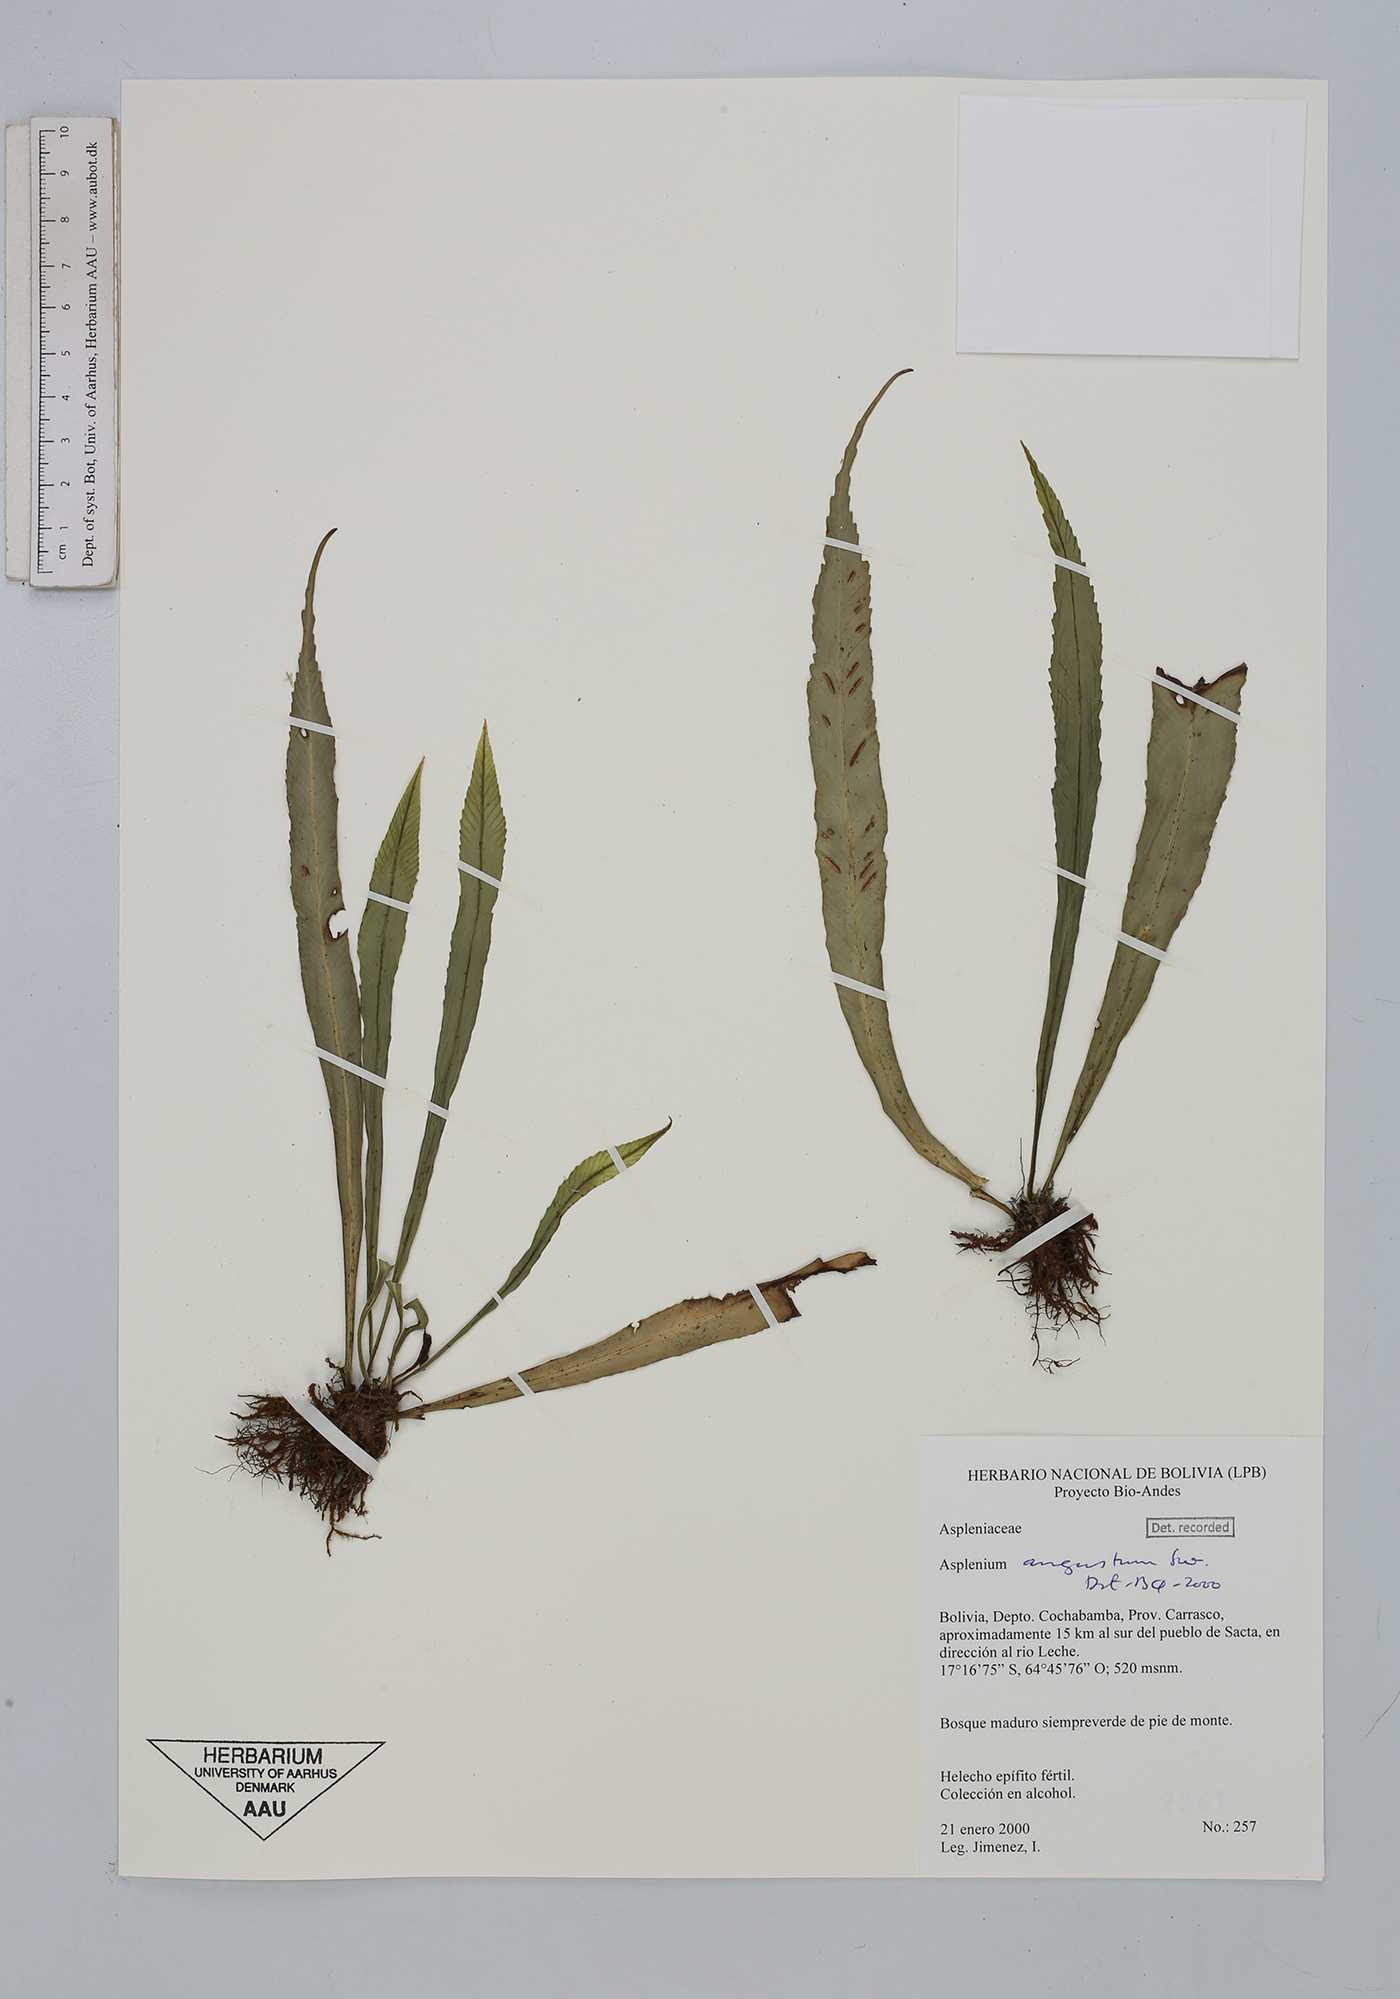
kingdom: Plantae
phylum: Tracheophyta
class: Polypodiopsida
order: Polypodiales
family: Aspleniaceae
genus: Asplenium
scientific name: Asplenium angustum
